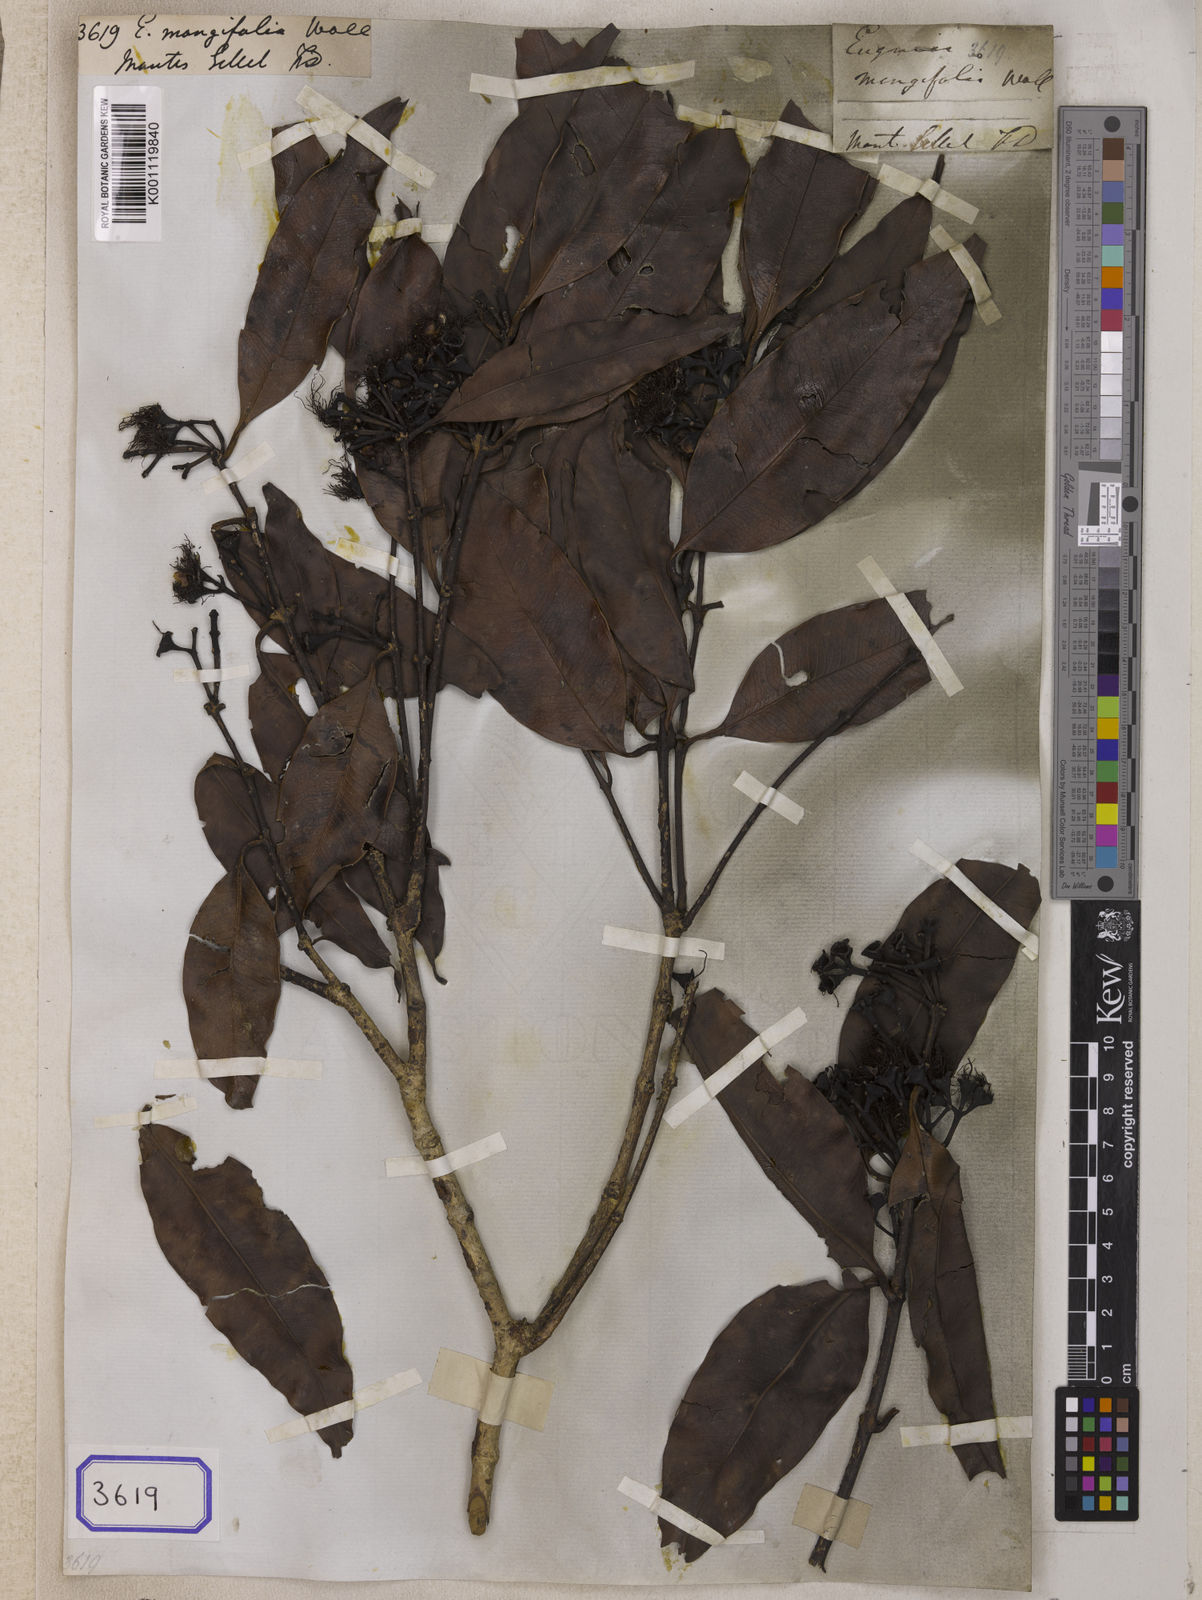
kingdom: Plantae
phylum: Tracheophyta
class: Magnoliopsida
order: Myrtales
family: Myrtaceae
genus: Eugenia
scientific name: Eugenia
